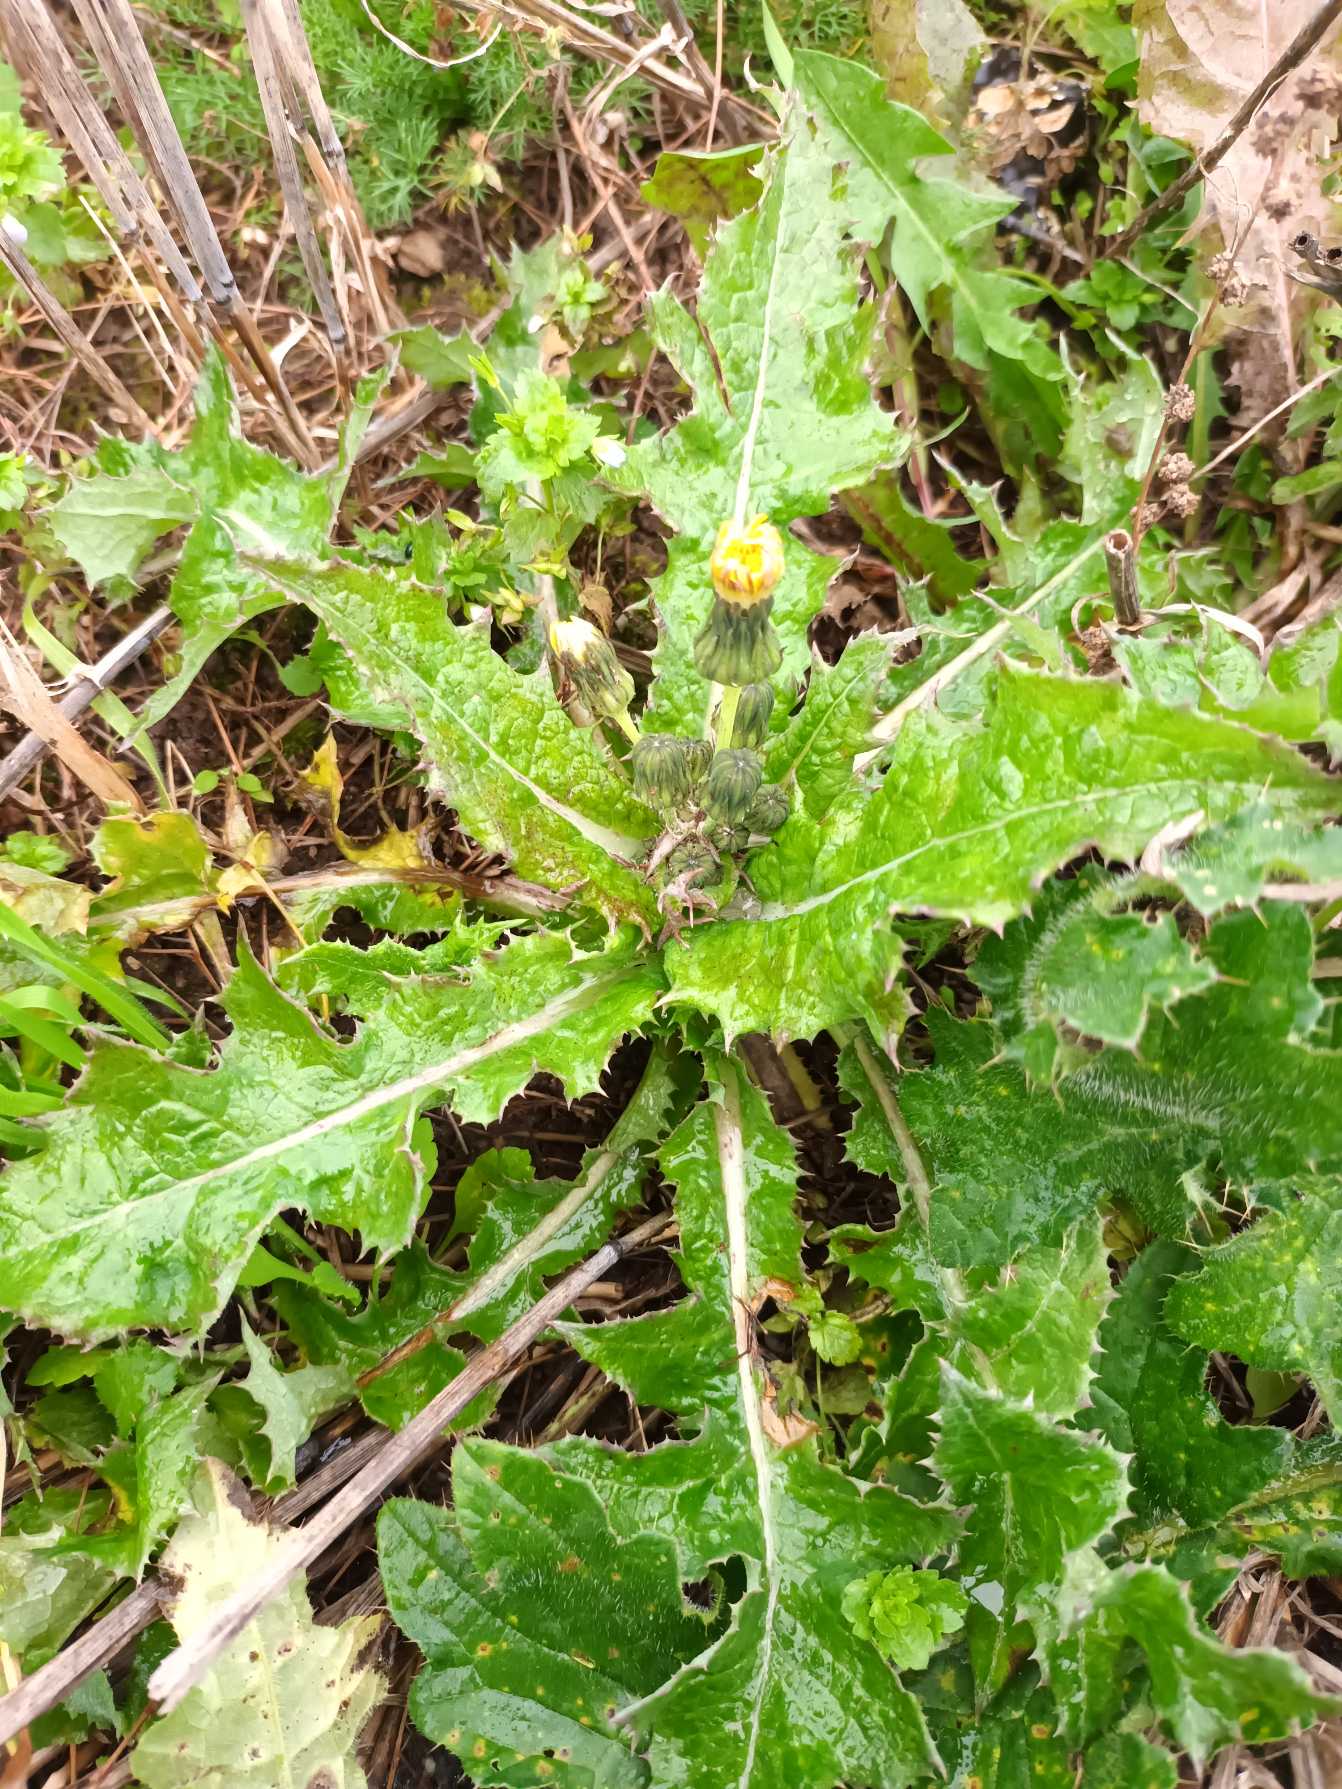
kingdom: Plantae
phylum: Tracheophyta
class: Magnoliopsida
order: Asterales
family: Asteraceae
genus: Sonchus
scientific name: Sonchus asper
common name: Ru svinemælk
